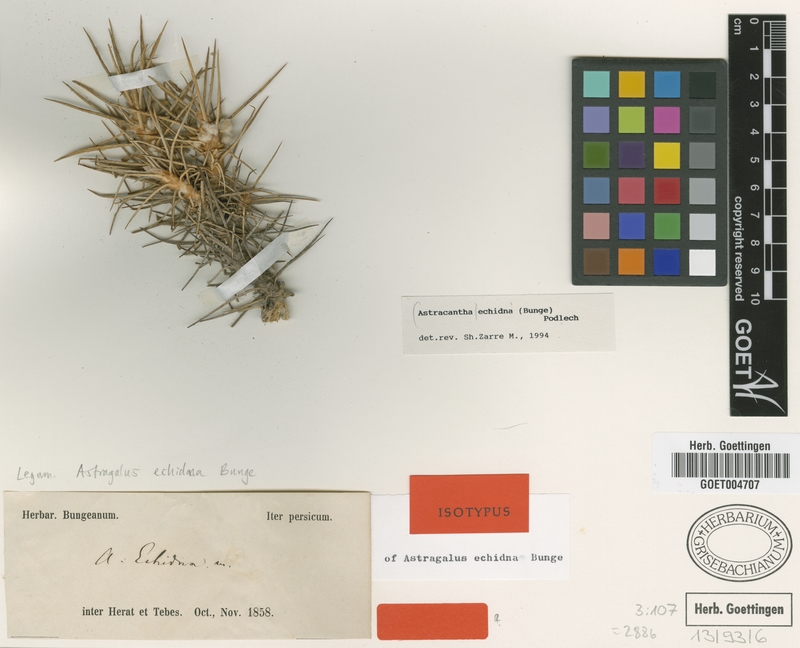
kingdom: Plantae
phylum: Tracheophyta
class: Magnoliopsida
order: Fabales
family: Fabaceae
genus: Astragalus
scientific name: Astragalus echidna
